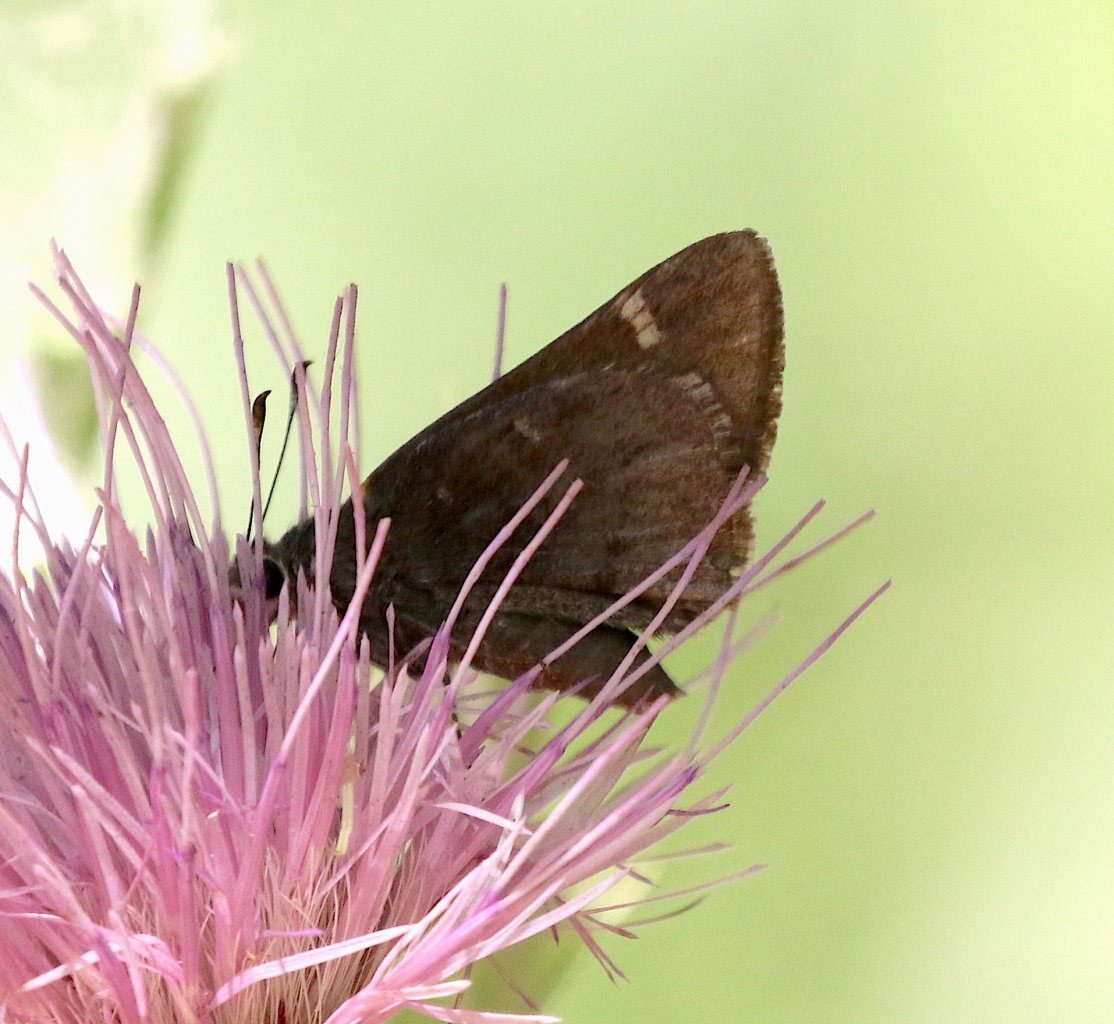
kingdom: Animalia
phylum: Arthropoda
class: Insecta
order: Lepidoptera
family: Hesperiidae
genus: Autochton
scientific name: Autochton
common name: Northern Cloudywing
